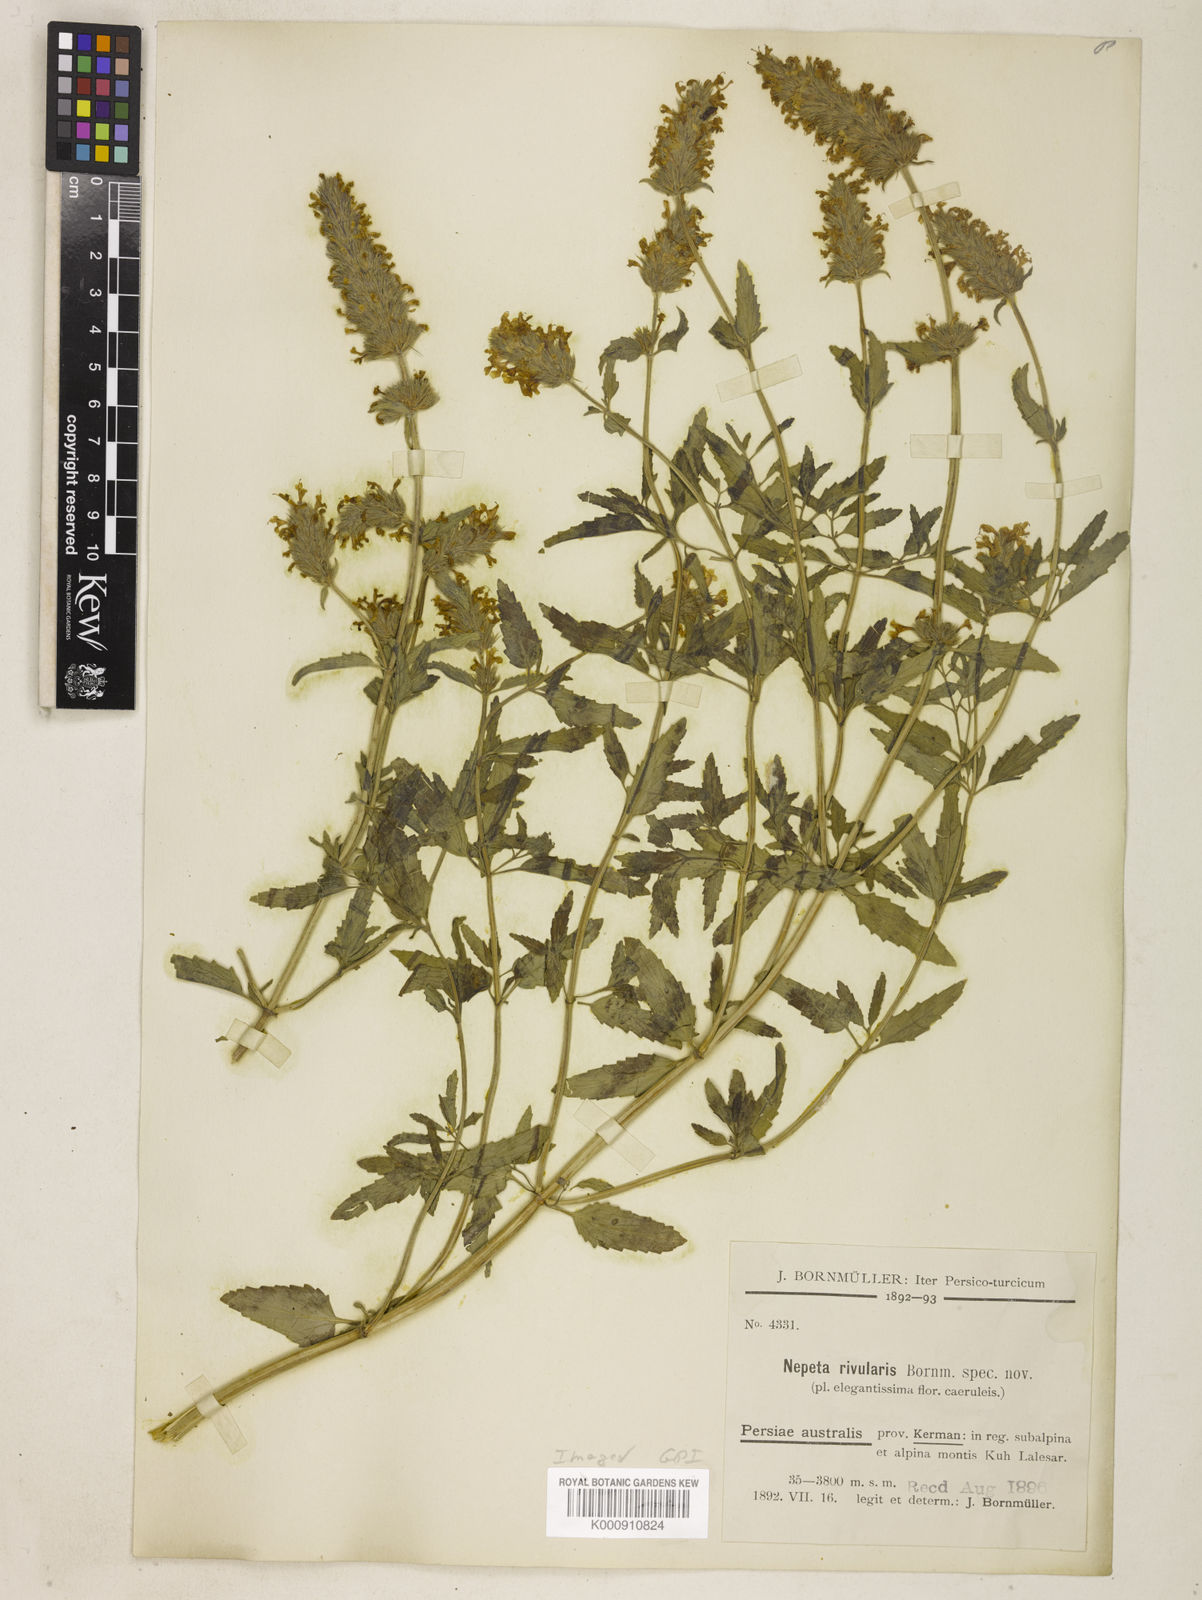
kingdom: Plantae
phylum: Tracheophyta
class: Magnoliopsida
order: Lamiales
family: Lamiaceae
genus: Nepeta
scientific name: Nepeta rivularis
